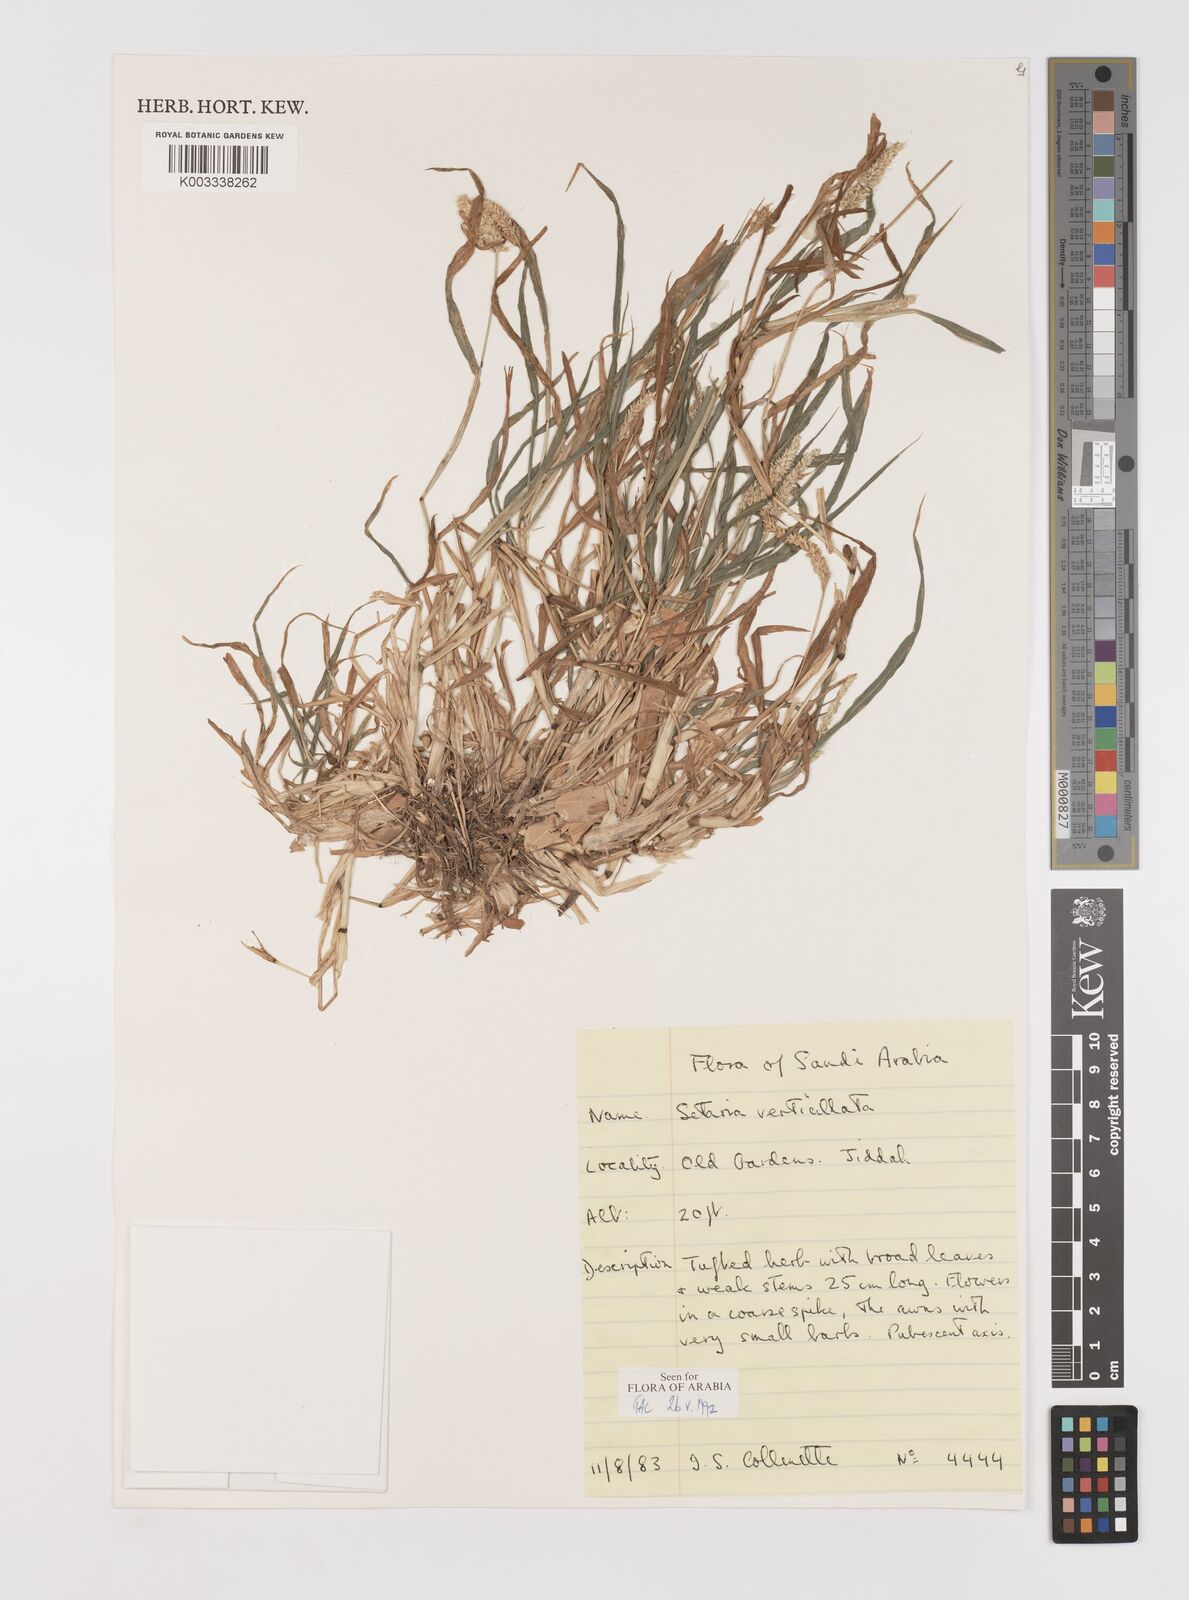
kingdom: Plantae
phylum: Tracheophyta
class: Liliopsida
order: Poales
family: Poaceae
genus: Setaria
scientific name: Setaria verticillata
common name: Hooked bristlegrass
